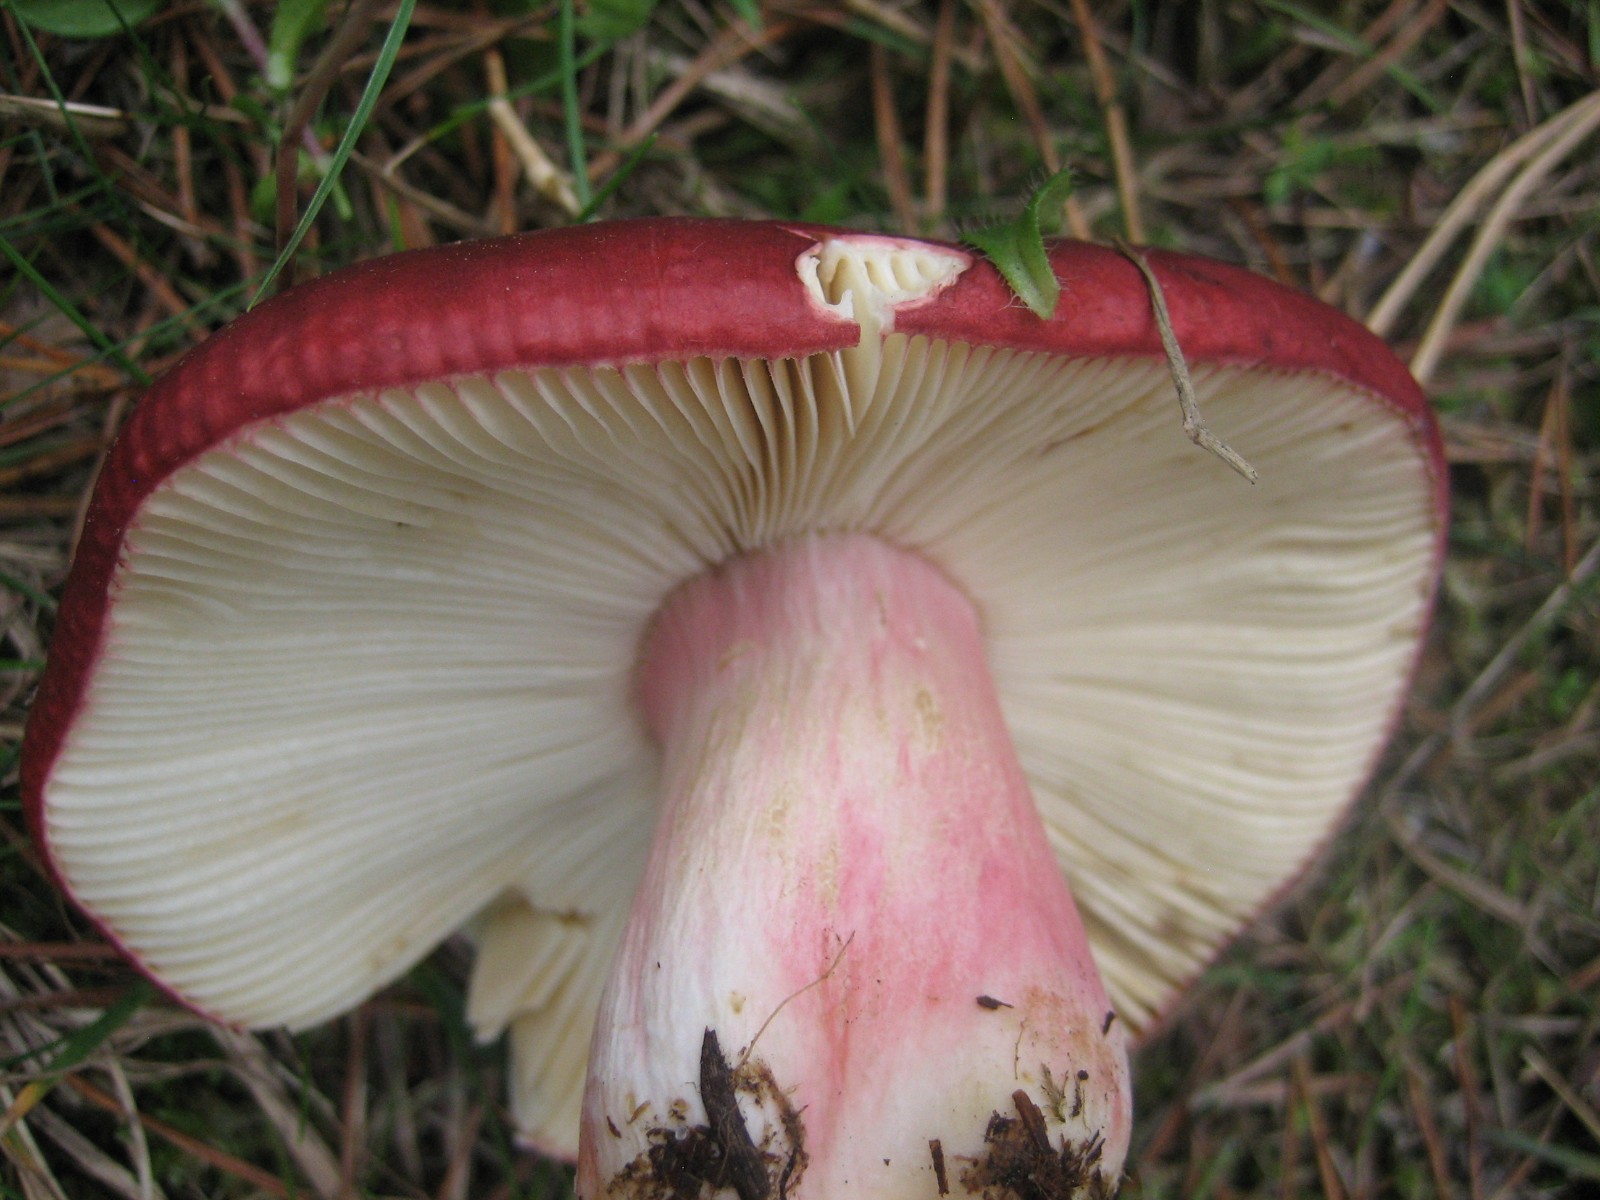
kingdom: Fungi
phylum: Basidiomycota
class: Agaricomycetes
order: Russulales
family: Russulaceae
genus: Russula
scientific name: Russula xerampelina
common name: hummer-skørhat
